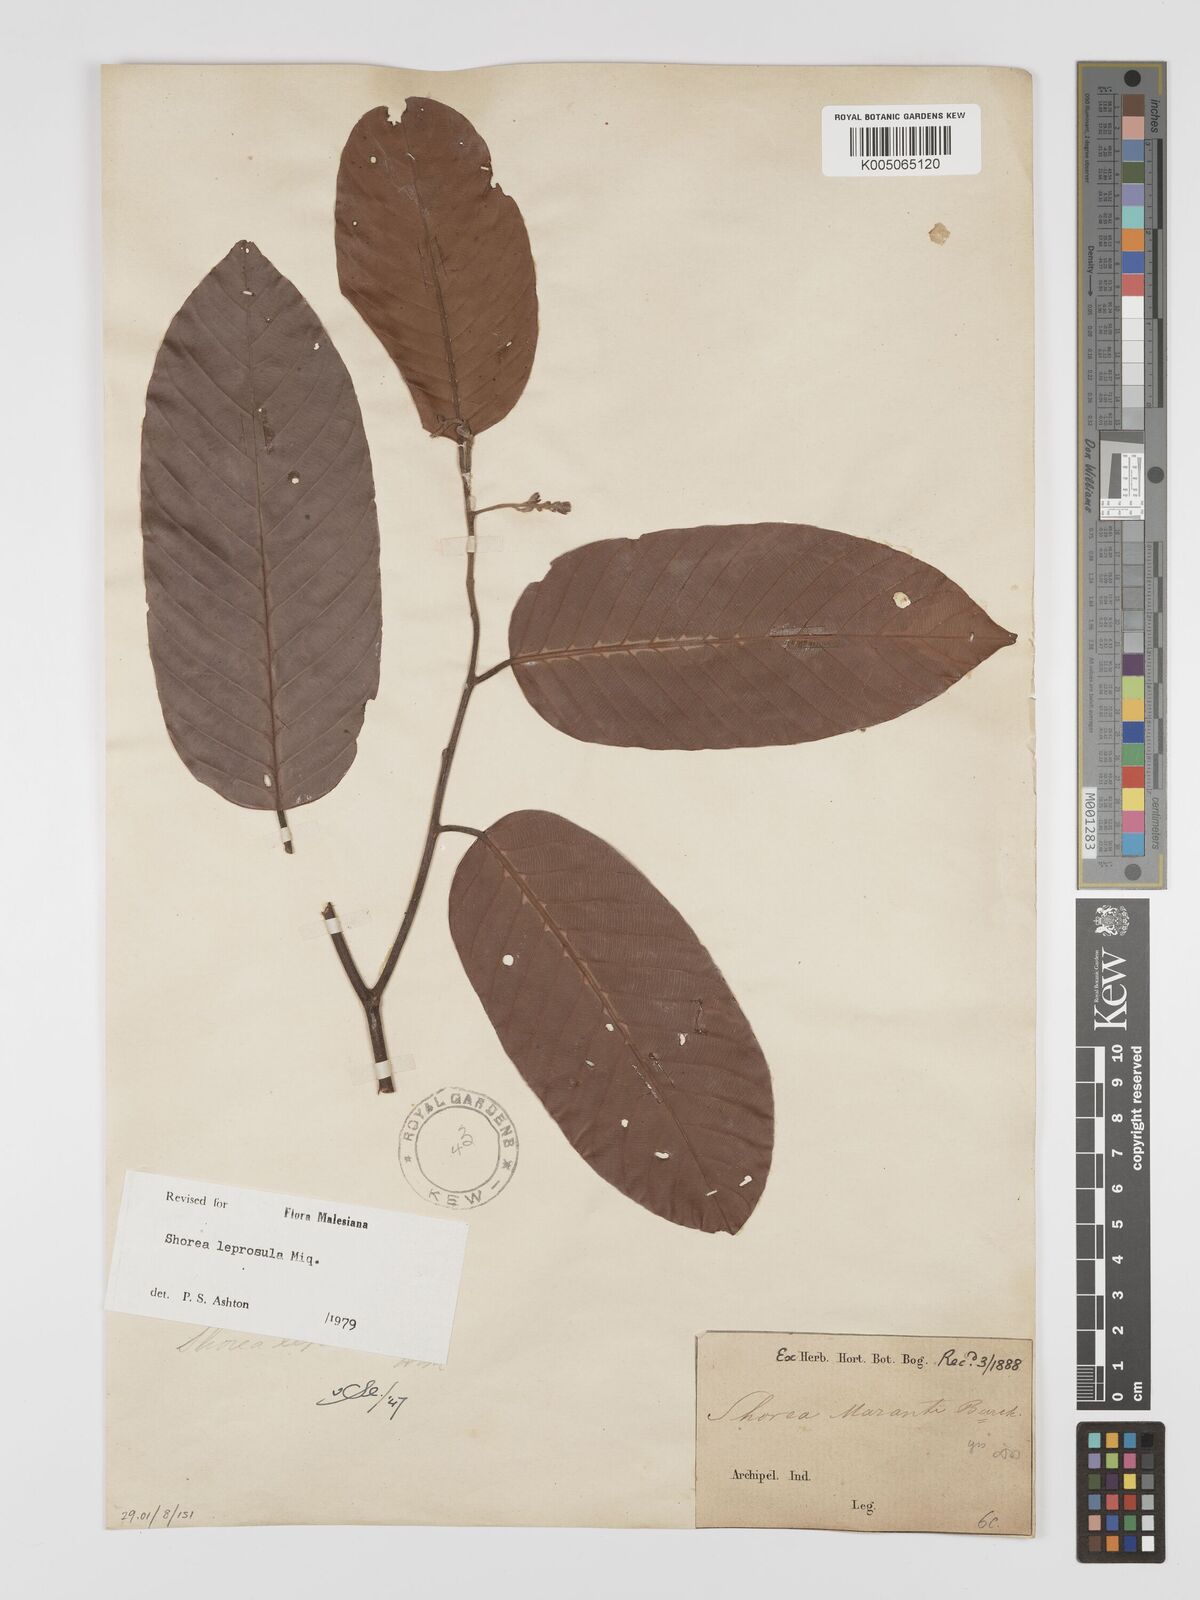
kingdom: Plantae
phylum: Tracheophyta
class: Magnoliopsida
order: Malvales
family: Dipterocarpaceae
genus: Shorea
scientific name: Shorea leprosula
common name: Light red meranti
